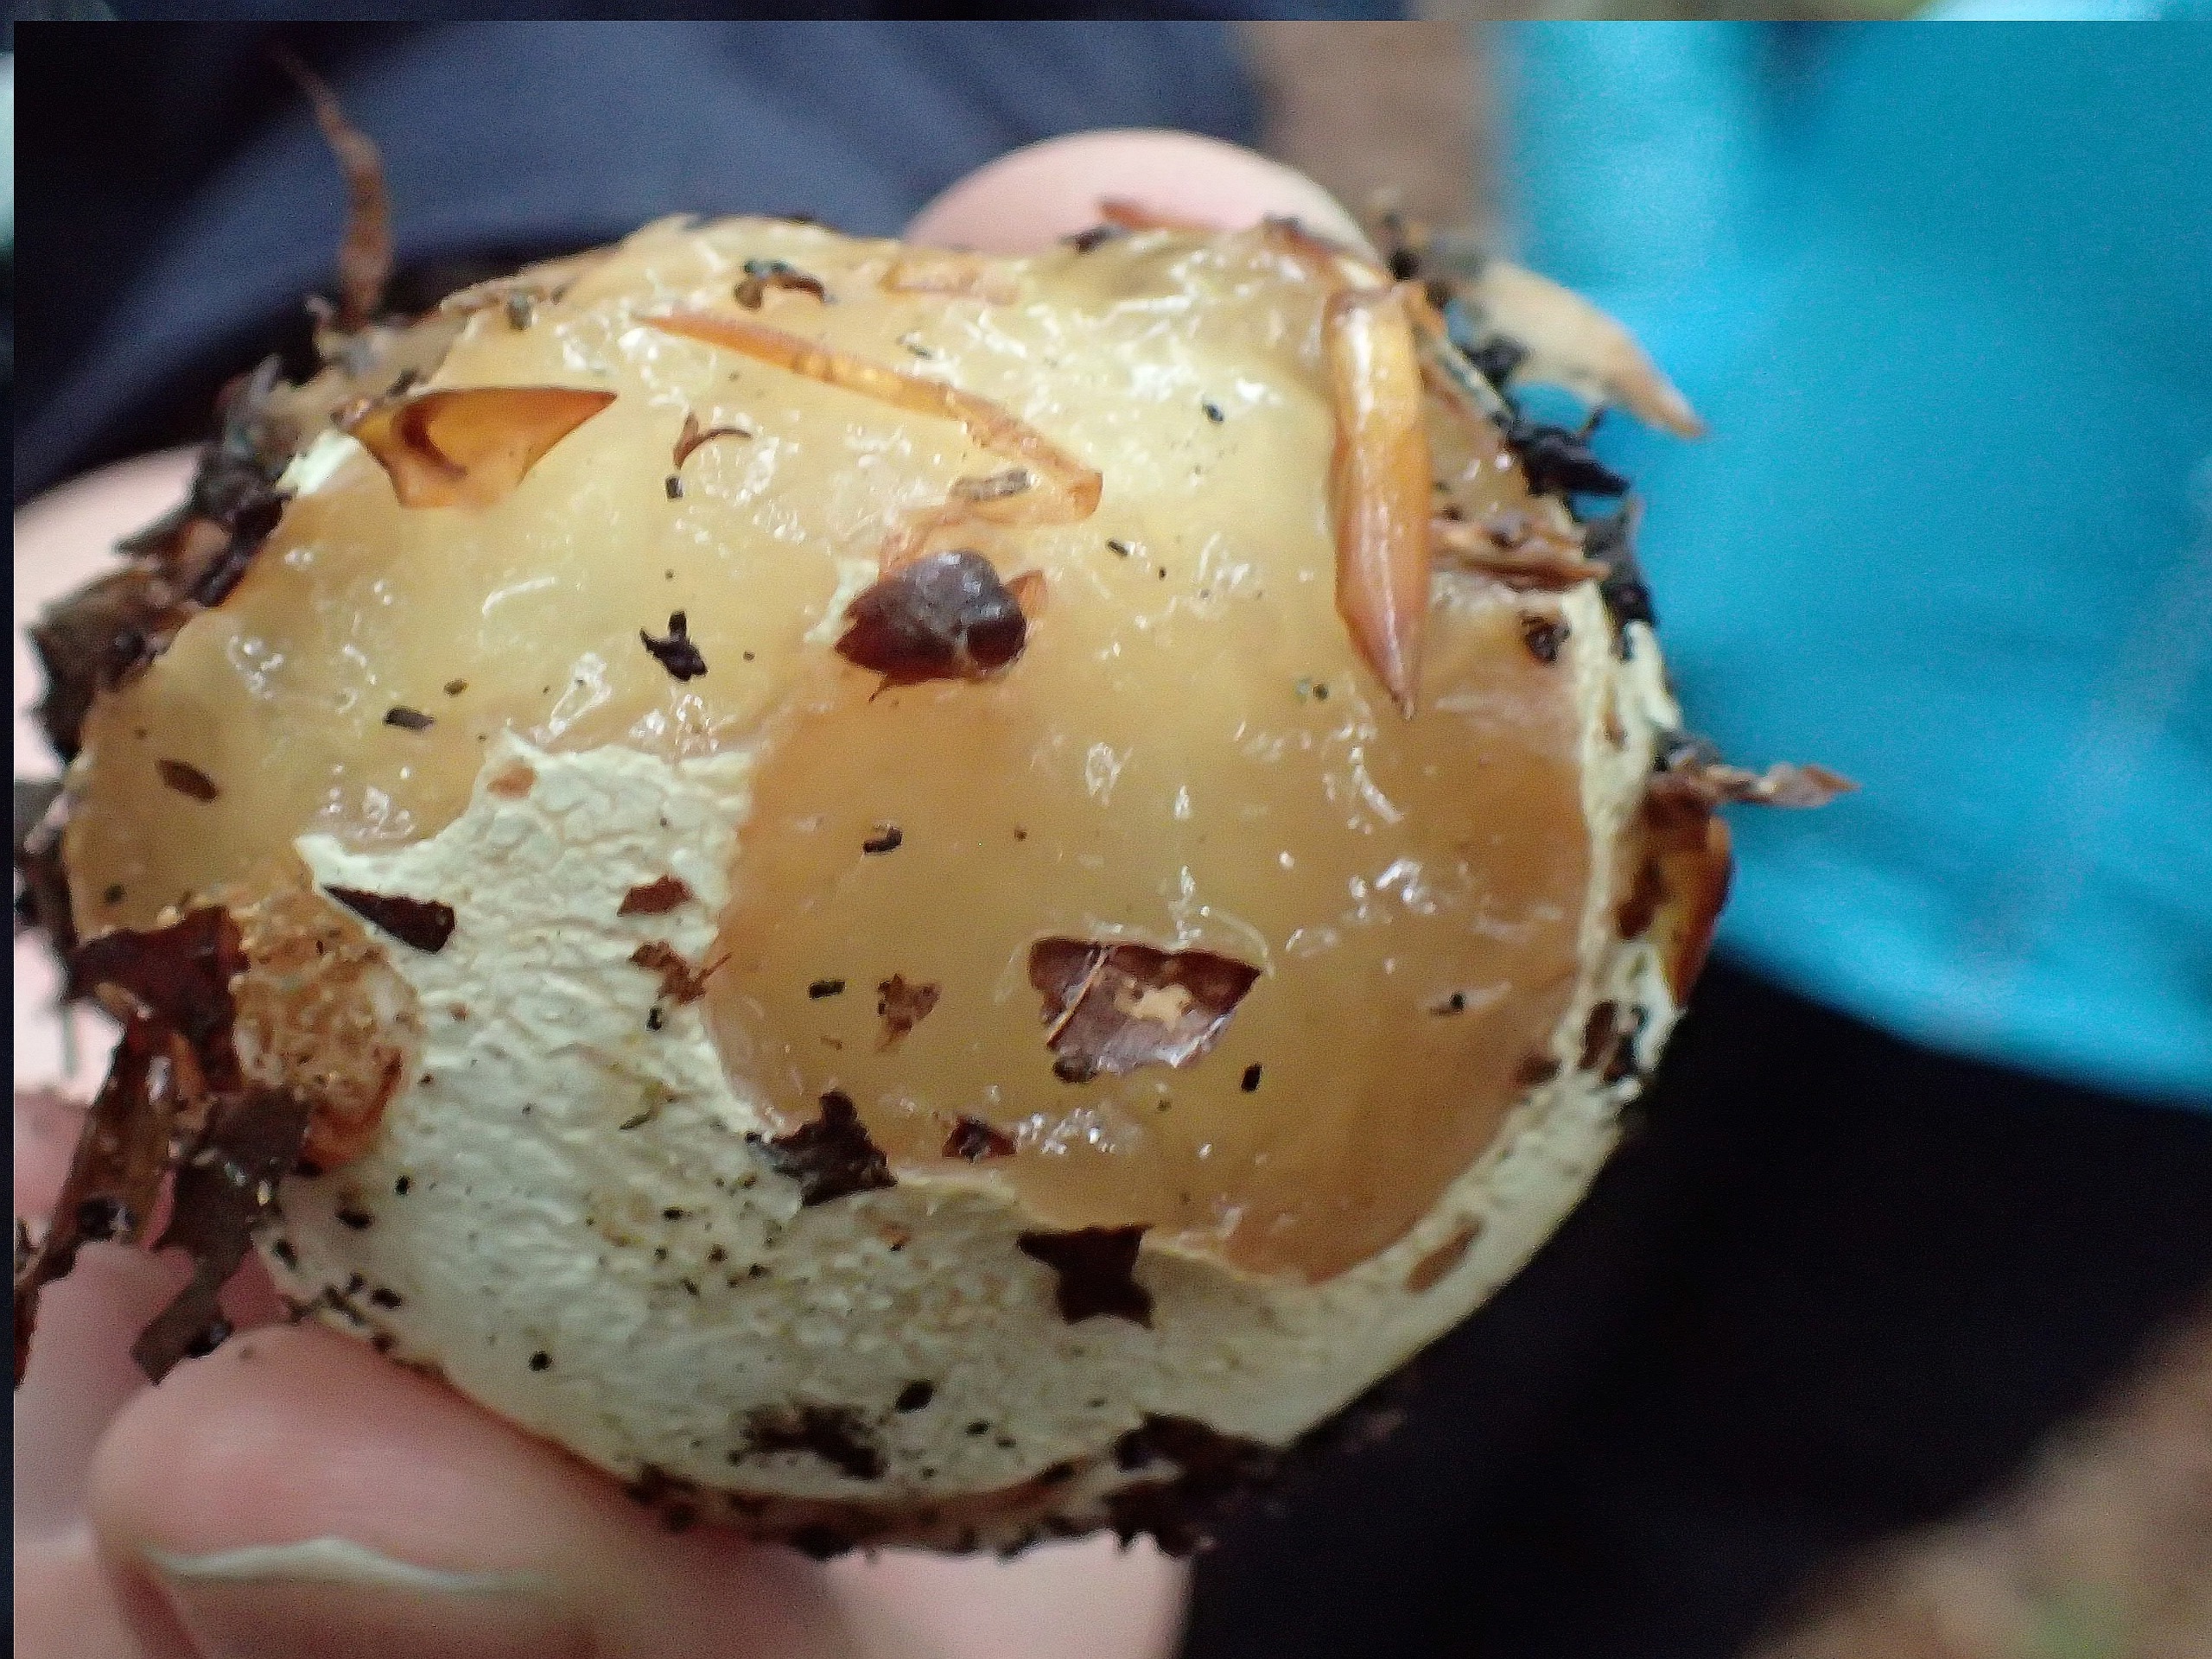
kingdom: Fungi
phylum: Basidiomycota
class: Agaricomycetes
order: Phallales
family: Phallaceae
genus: Phallus
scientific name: Phallus impudicus
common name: Almindelig stinksvamp
